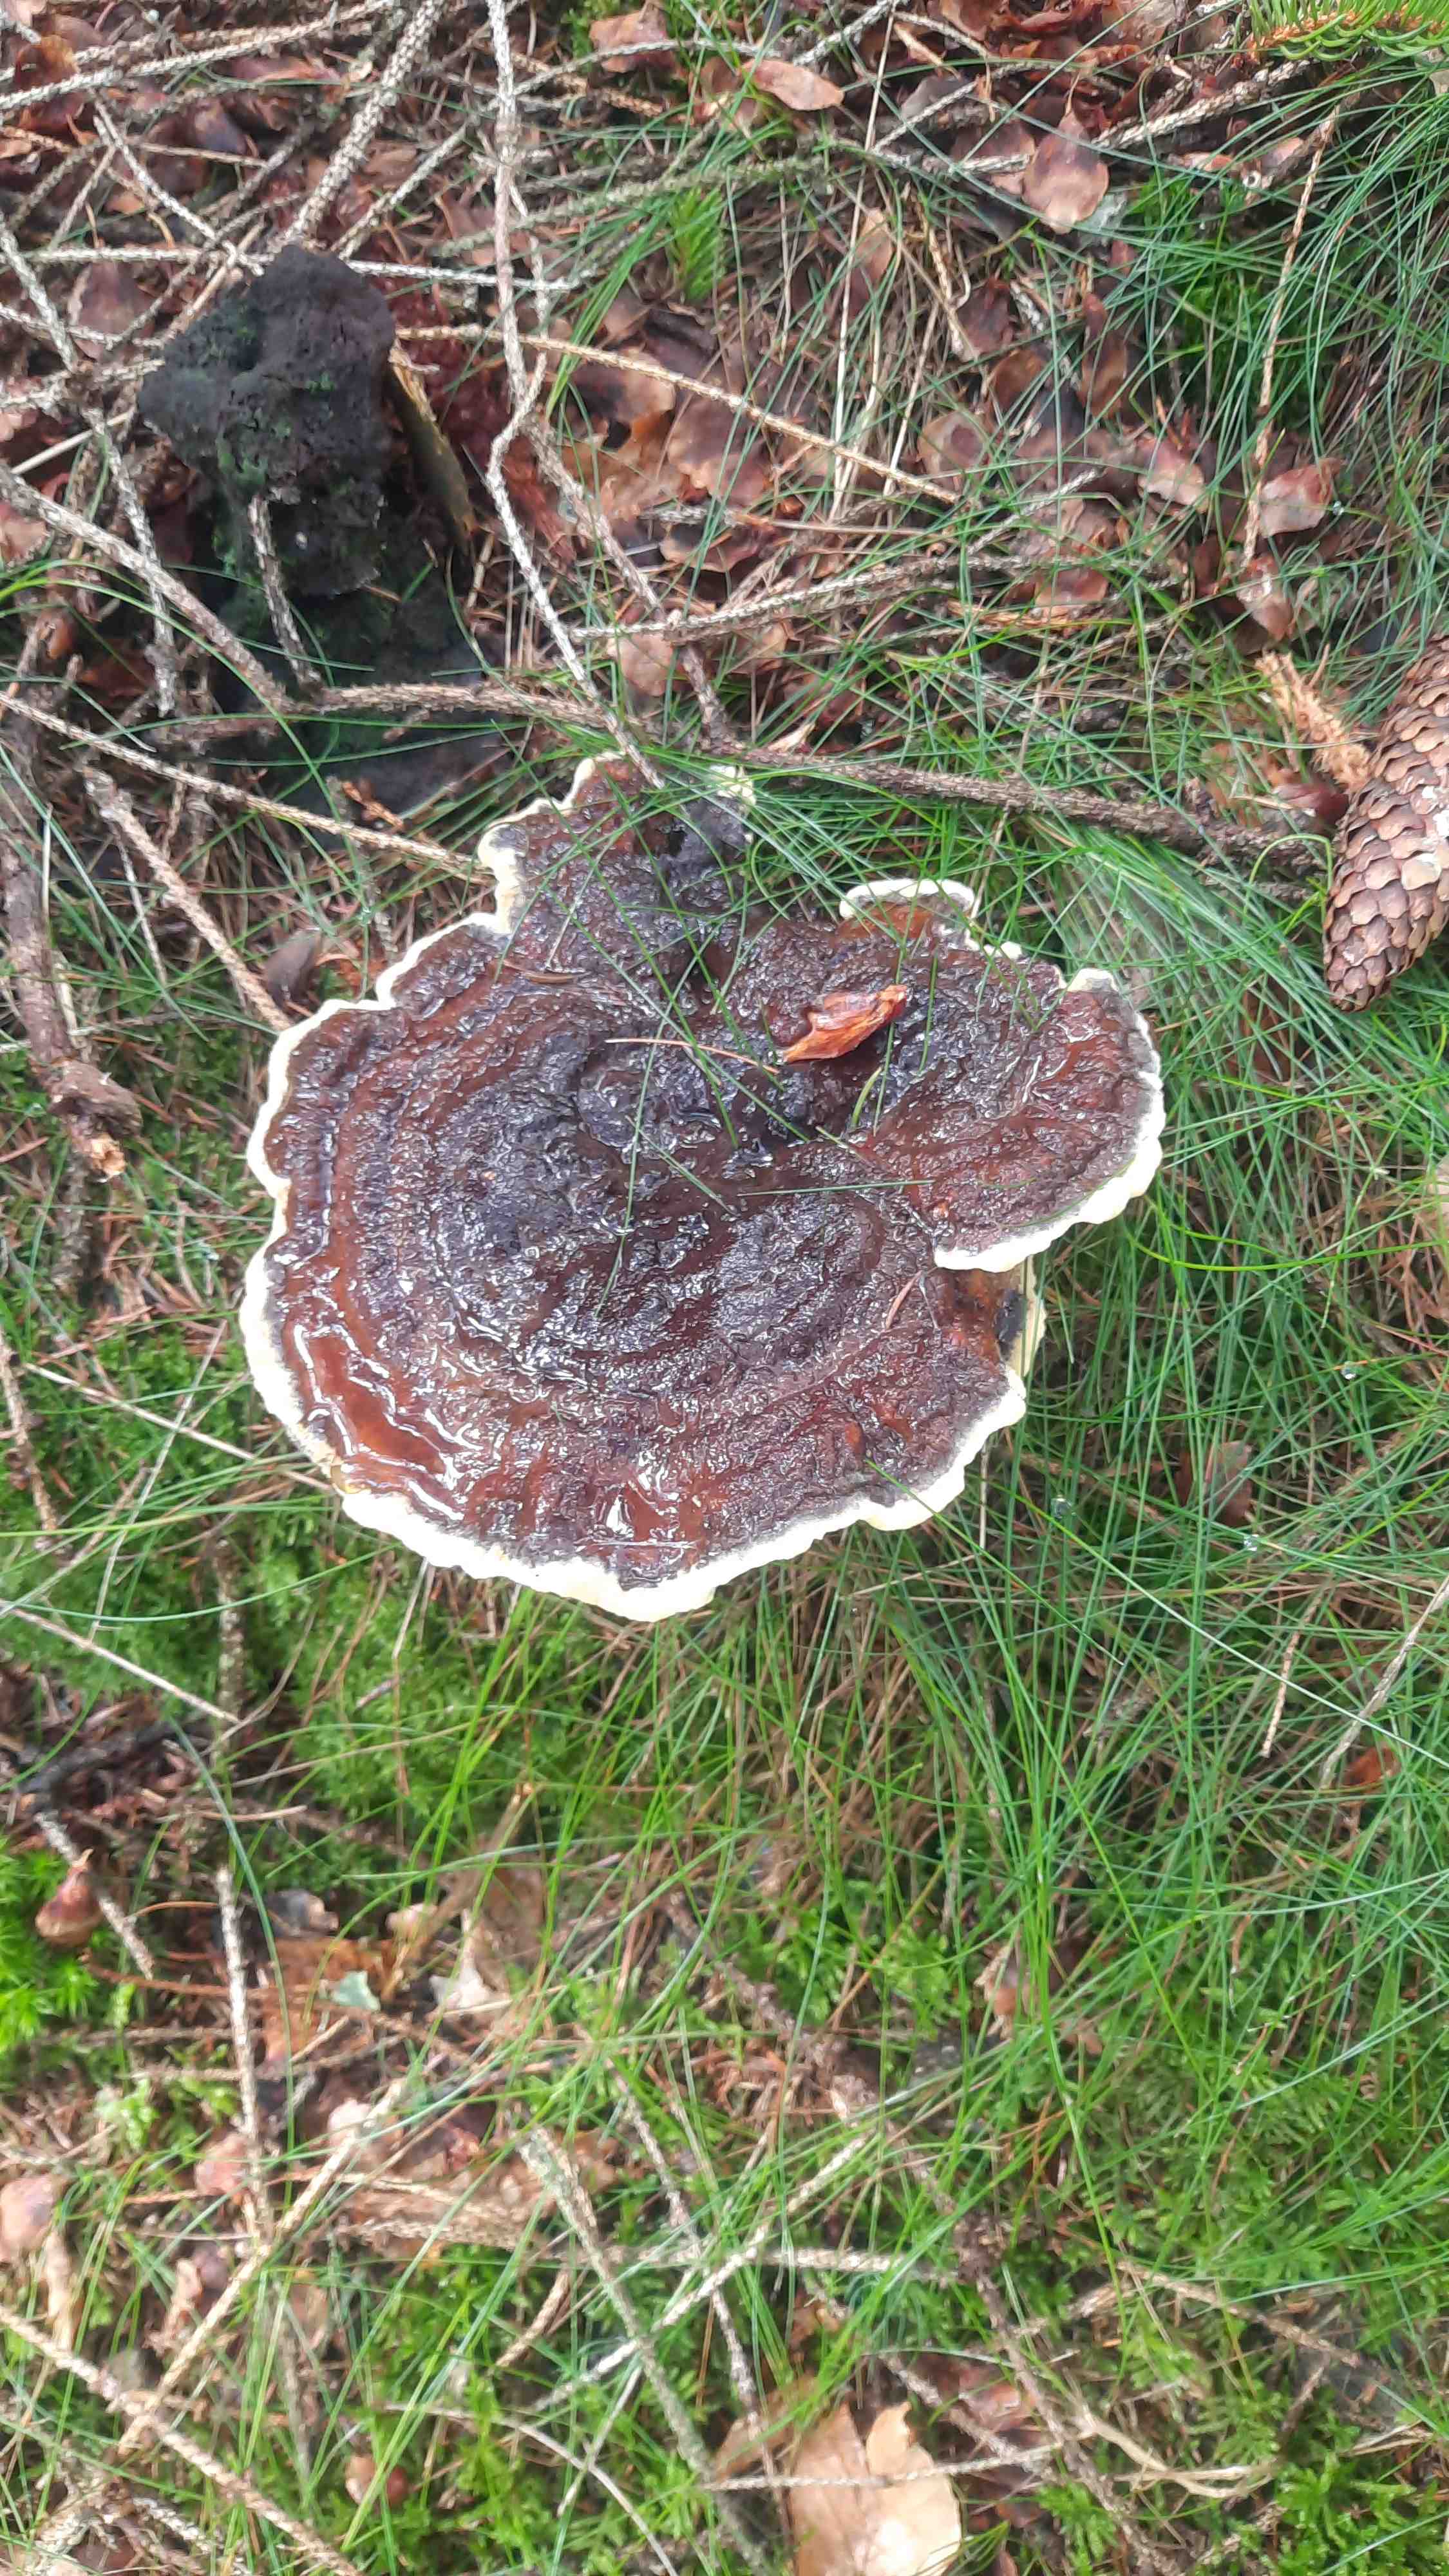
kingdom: Fungi
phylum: Basidiomycota
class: Agaricomycetes
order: Polyporales
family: Laetiporaceae
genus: Phaeolus
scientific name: Phaeolus schweinitzii
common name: brunporesvamp
